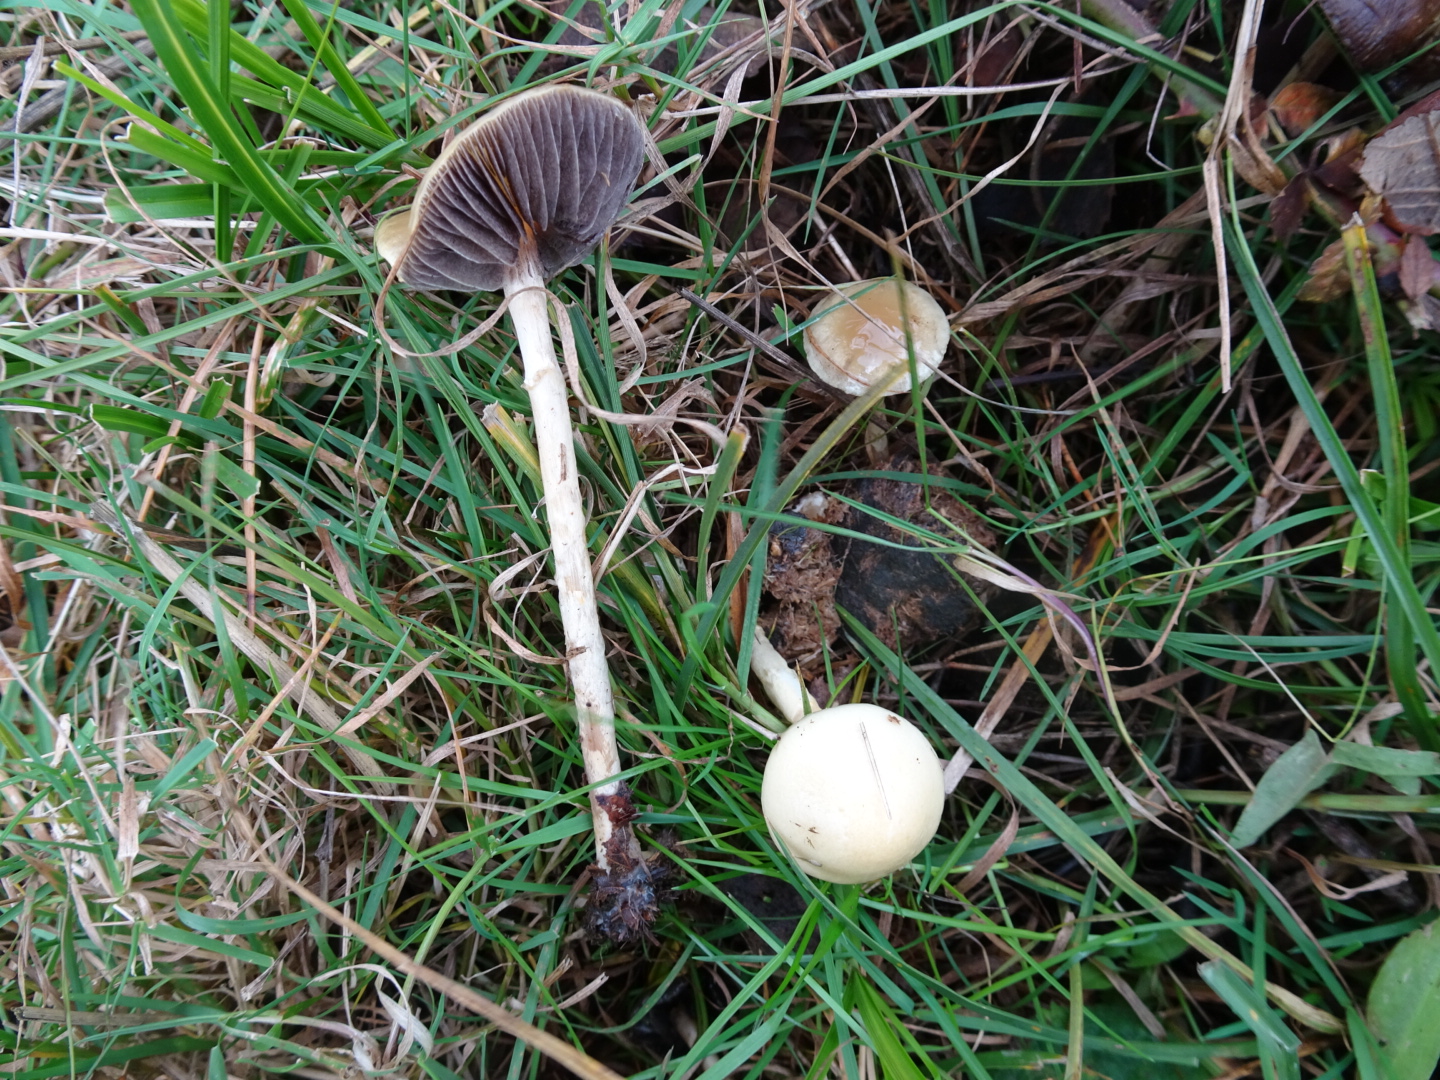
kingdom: Fungi
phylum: Basidiomycota
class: Agaricomycetes
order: Agaricales
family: Strophariaceae
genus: Protostropharia
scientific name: Protostropharia semiglobata
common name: halvkugleformet bredblad
